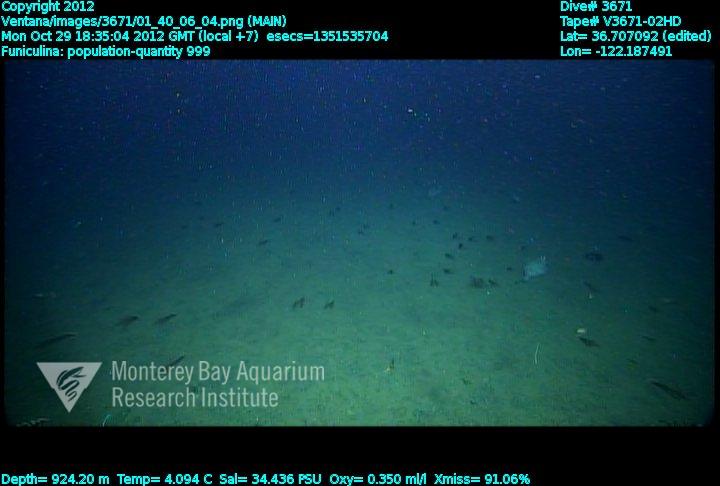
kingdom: Animalia
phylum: Cnidaria
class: Anthozoa
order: Scleralcyonacea
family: Funiculinidae
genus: Funiculina
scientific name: Funiculina
